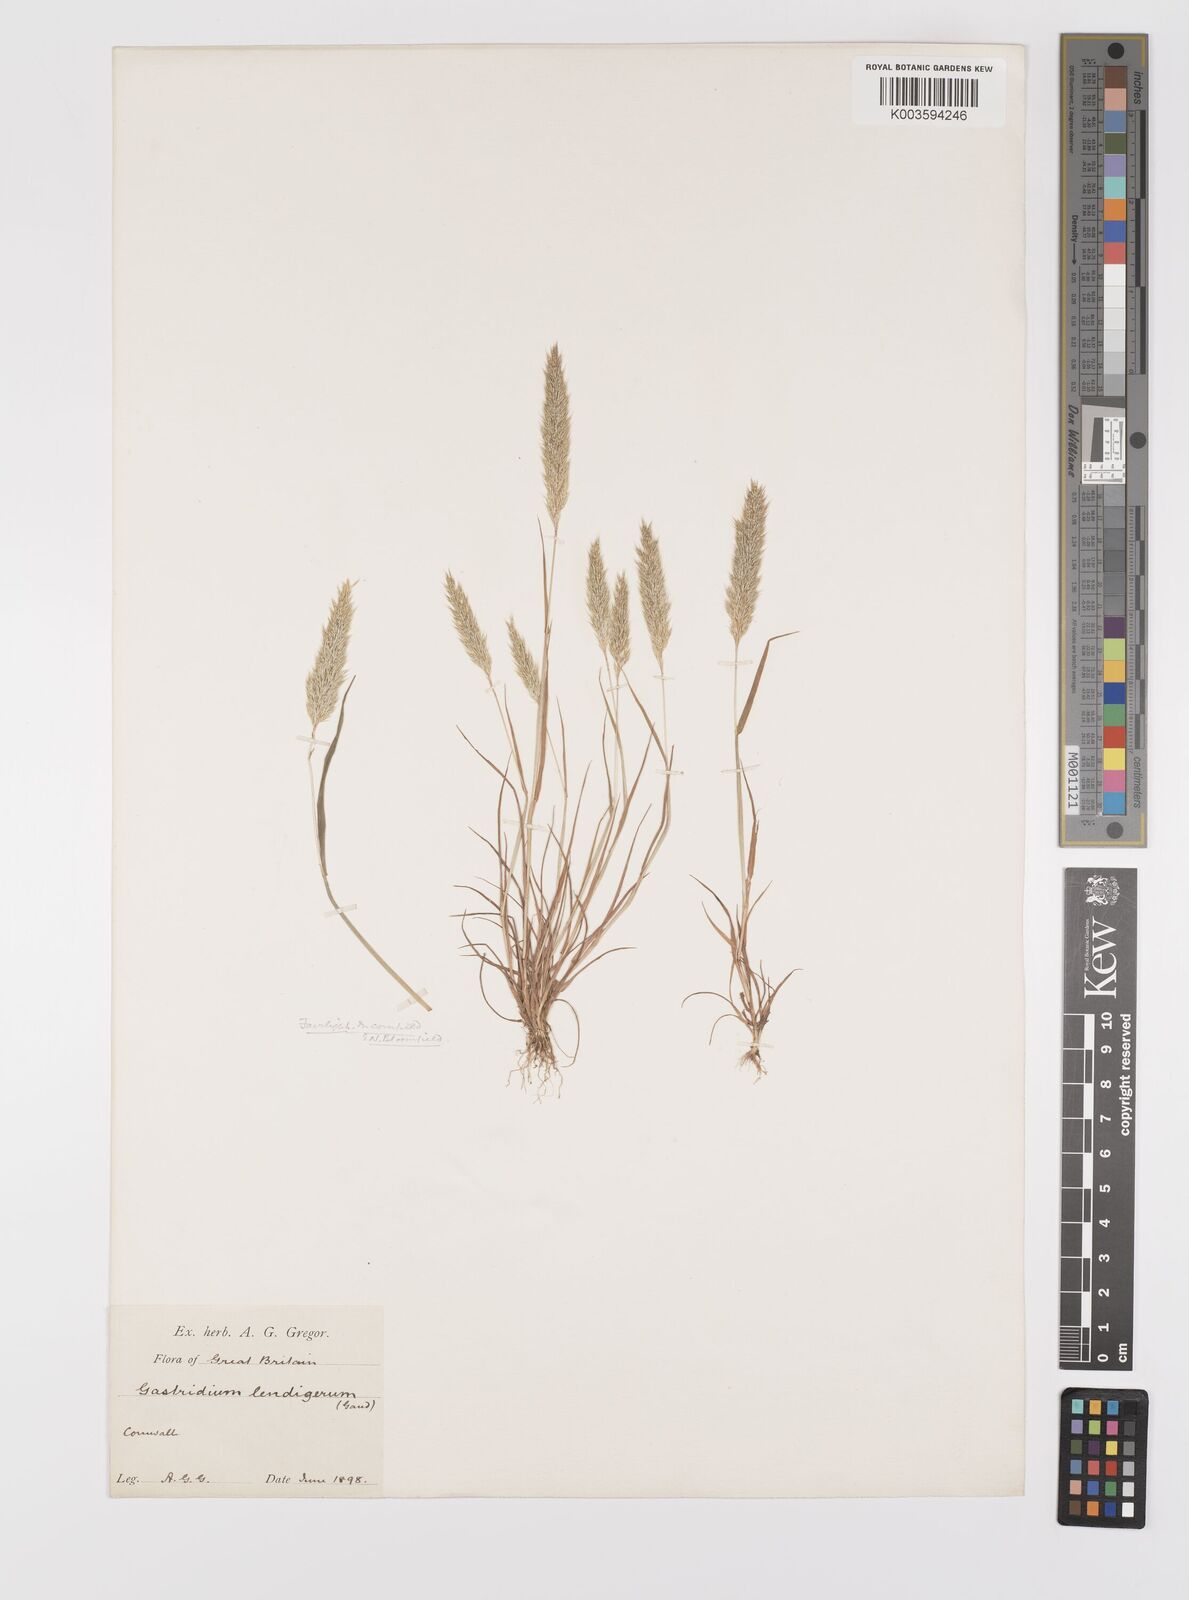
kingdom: Plantae
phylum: Tracheophyta
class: Liliopsida
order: Poales
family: Poaceae
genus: Gastridium
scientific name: Gastridium ventricosum
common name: Nit-grass
